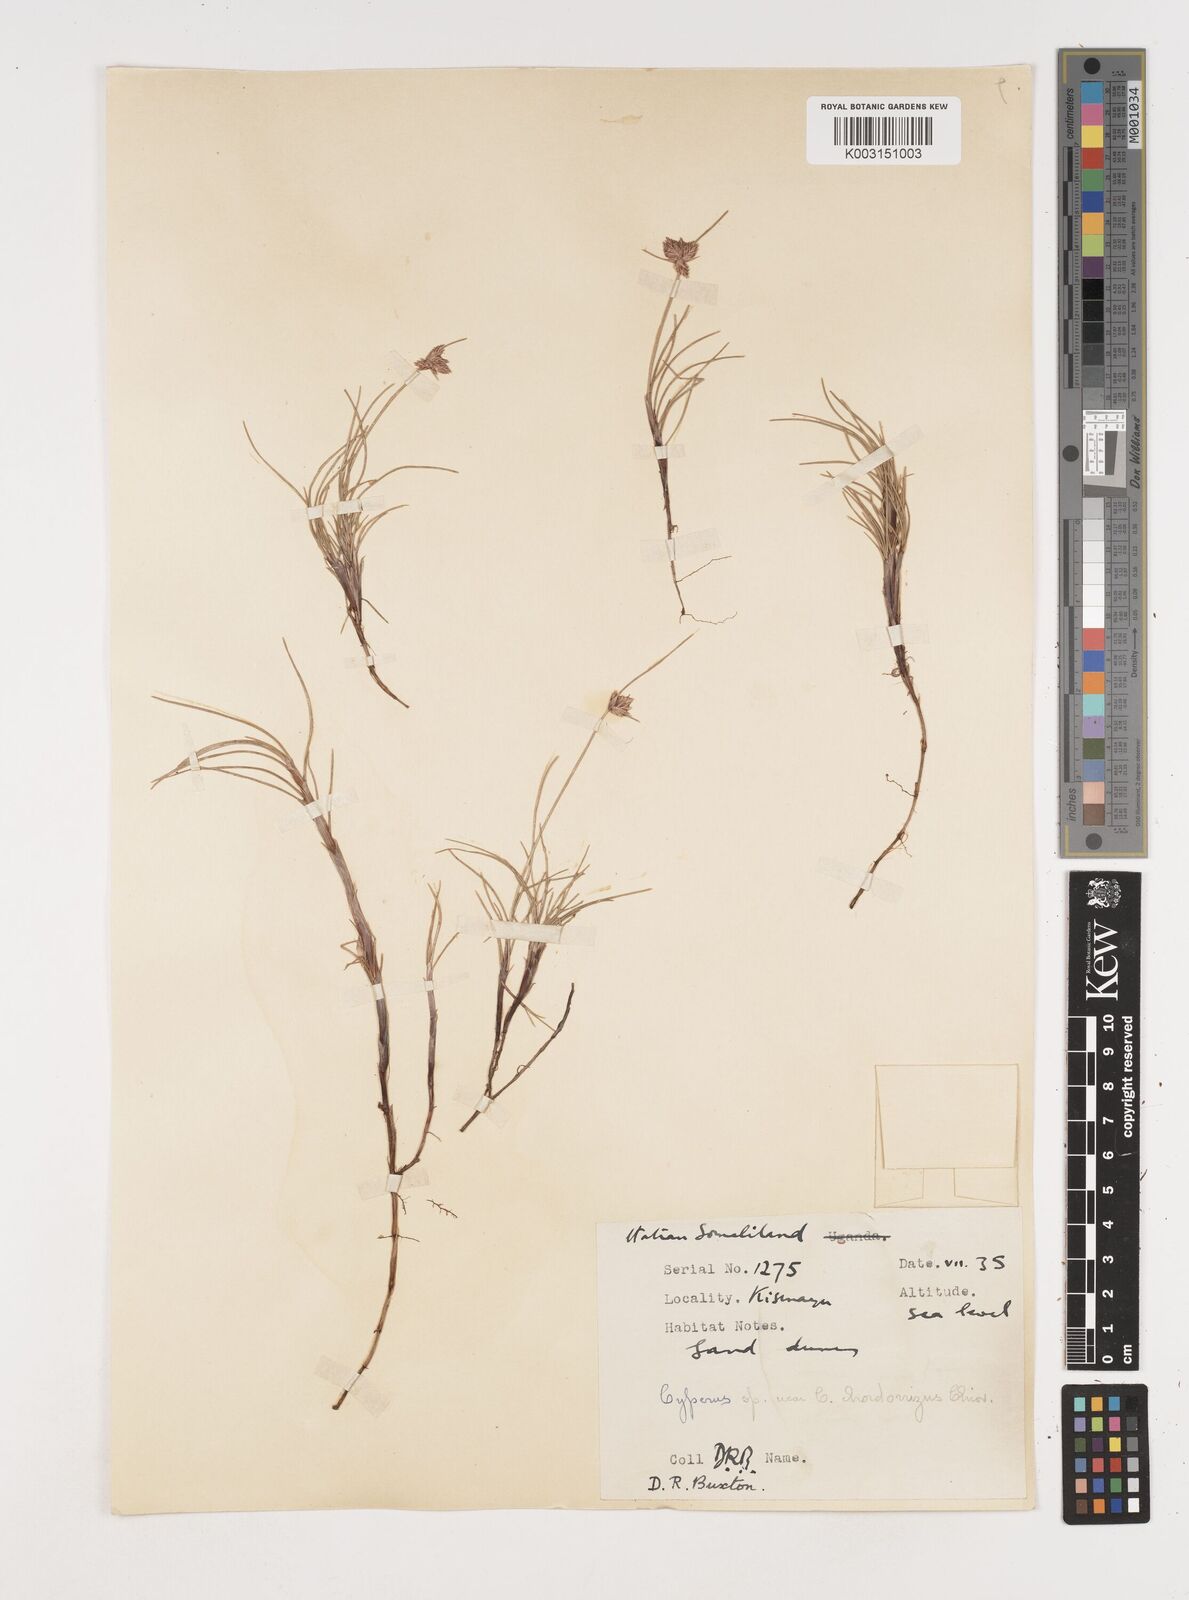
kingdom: Plantae
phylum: Tracheophyta
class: Liliopsida
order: Poales
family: Cyperaceae
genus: Cyperus
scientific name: Cyperus chordorrhizus
